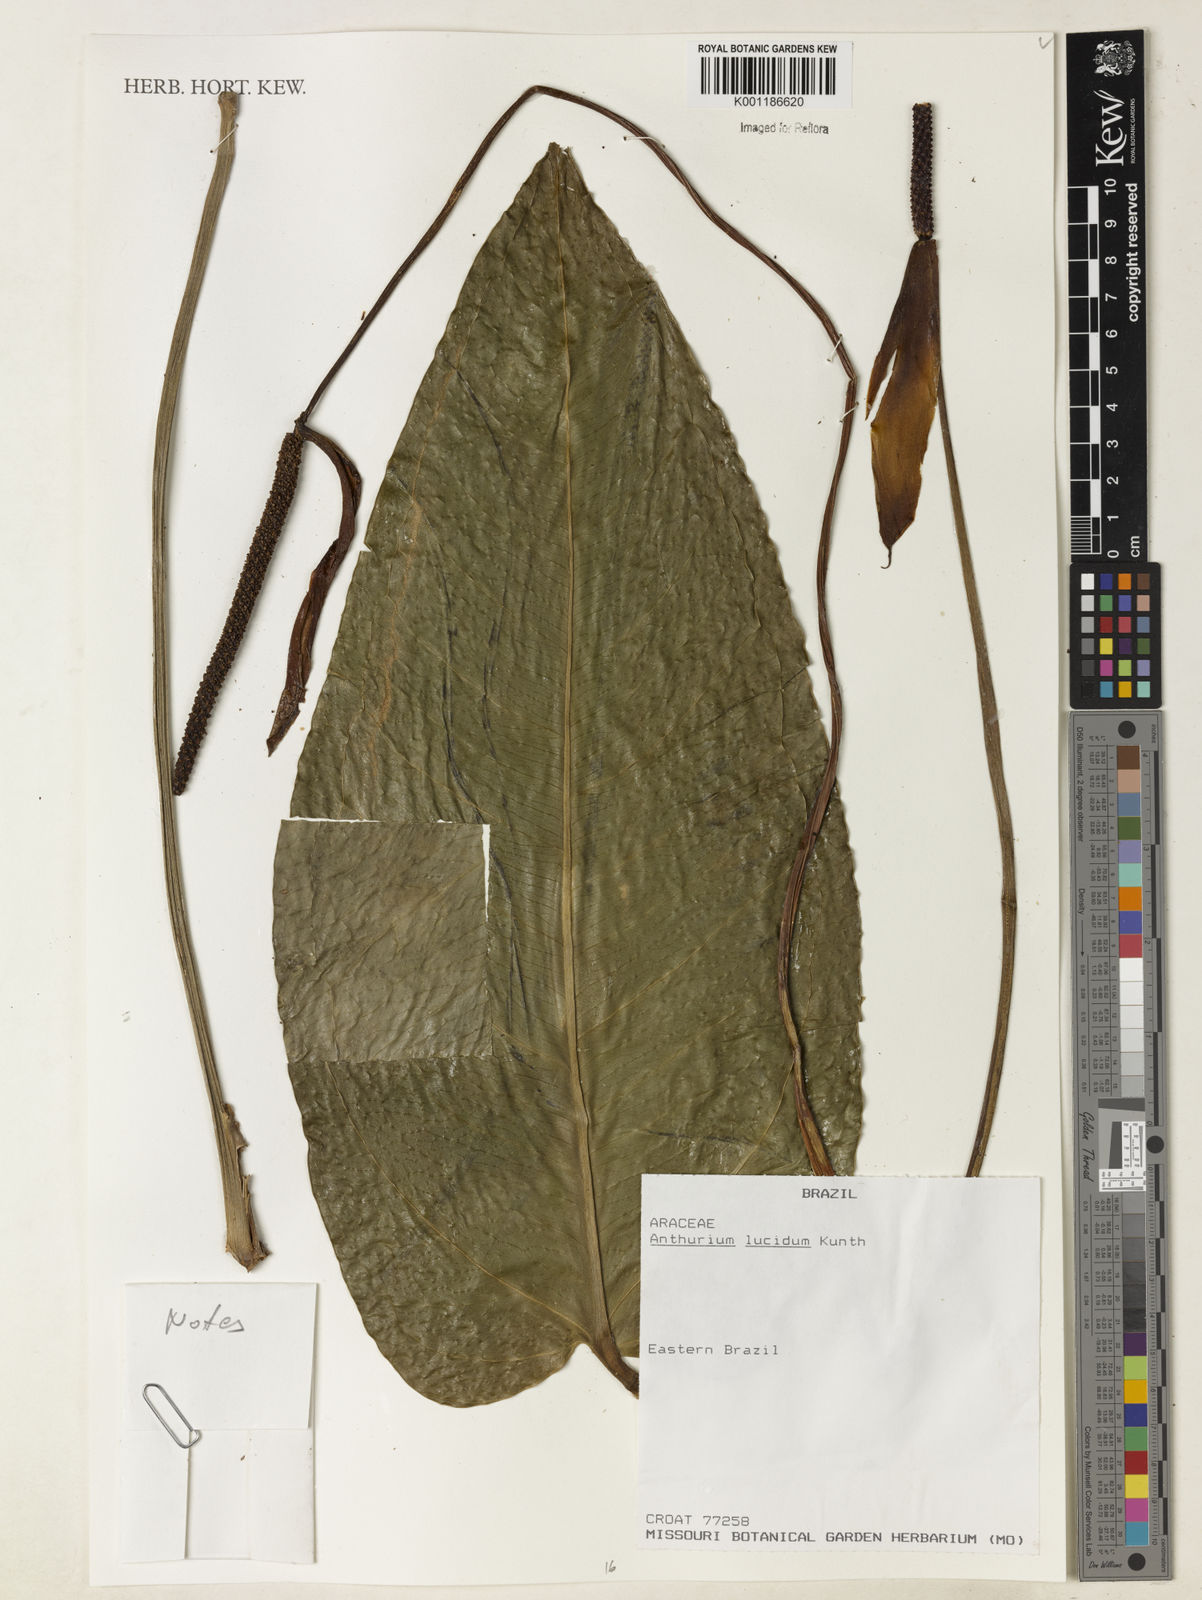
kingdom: Plantae
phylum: Tracheophyta
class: Liliopsida
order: Alismatales
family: Araceae
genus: Anthurium
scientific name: Anthurium lucidum
